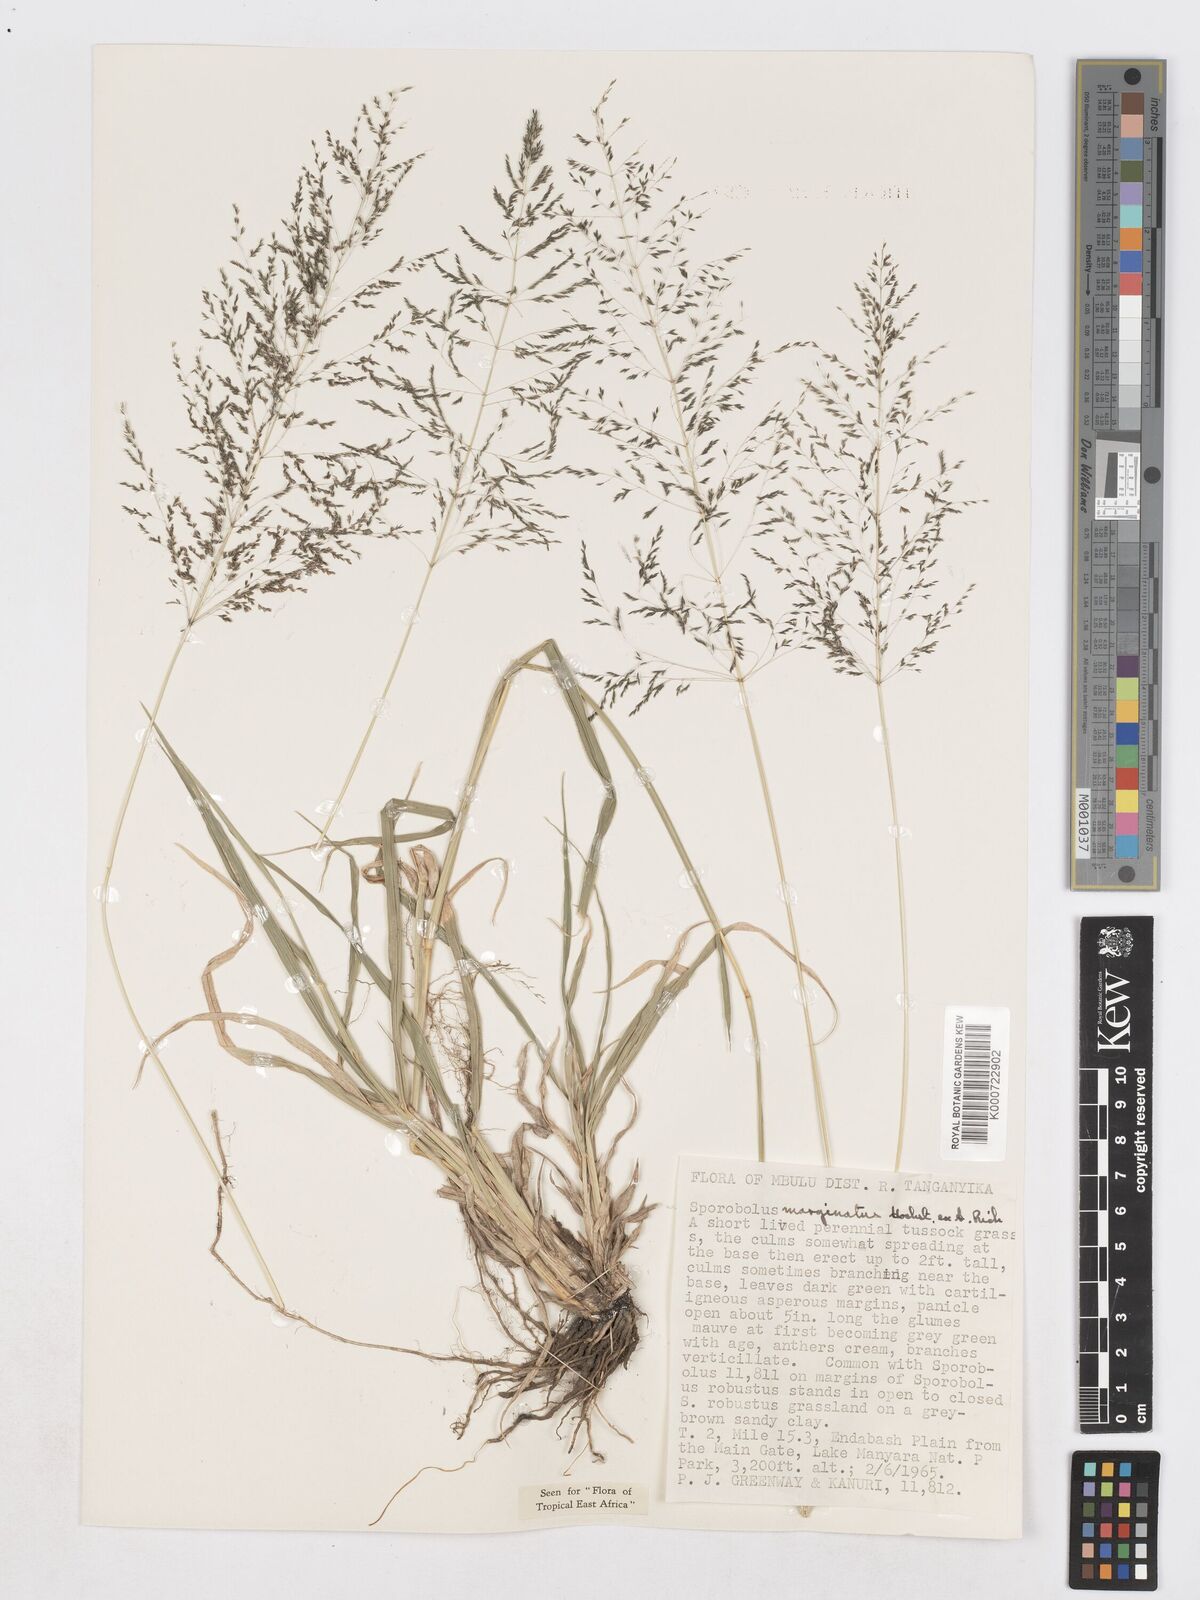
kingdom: Plantae
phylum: Tracheophyta
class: Liliopsida
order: Poales
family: Poaceae
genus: Sporobolus
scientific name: Sporobolus ioclados
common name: Pan dropseed
